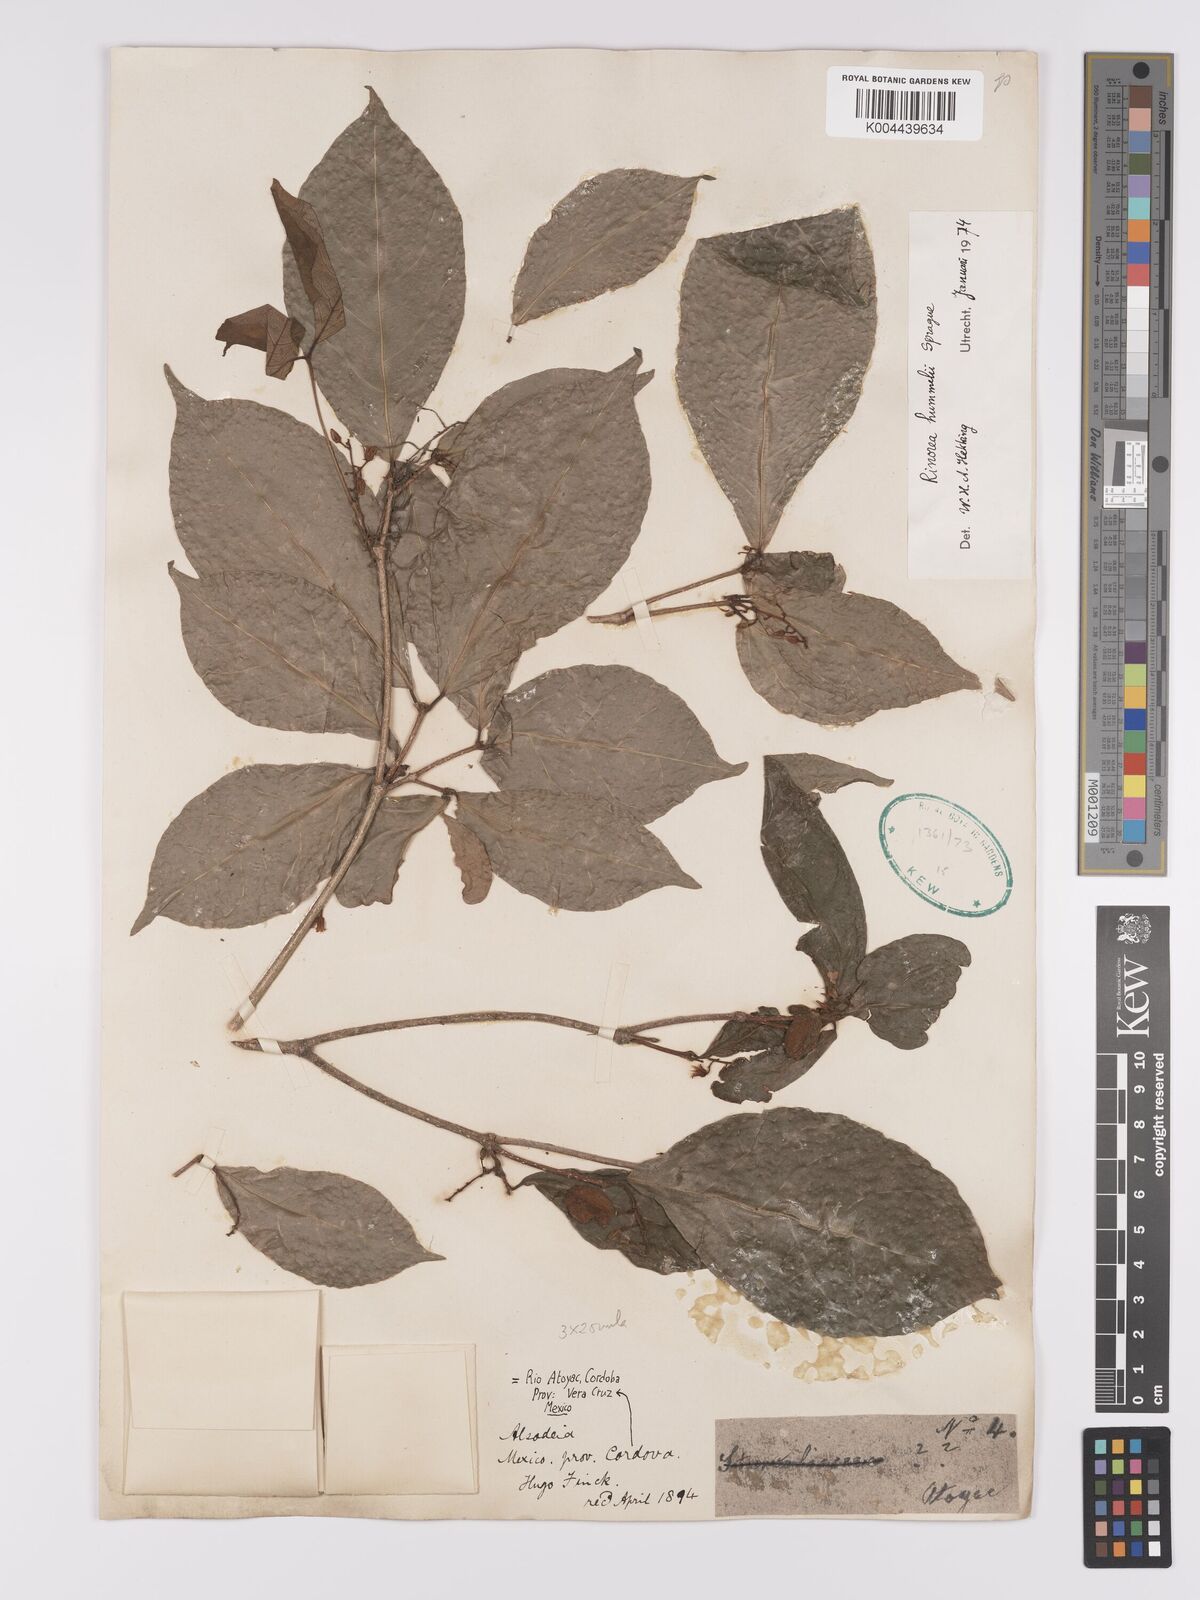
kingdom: Plantae
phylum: Tracheophyta
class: Magnoliopsida
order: Malpighiales
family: Violaceae
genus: Rinorea
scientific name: Rinorea hummelii
